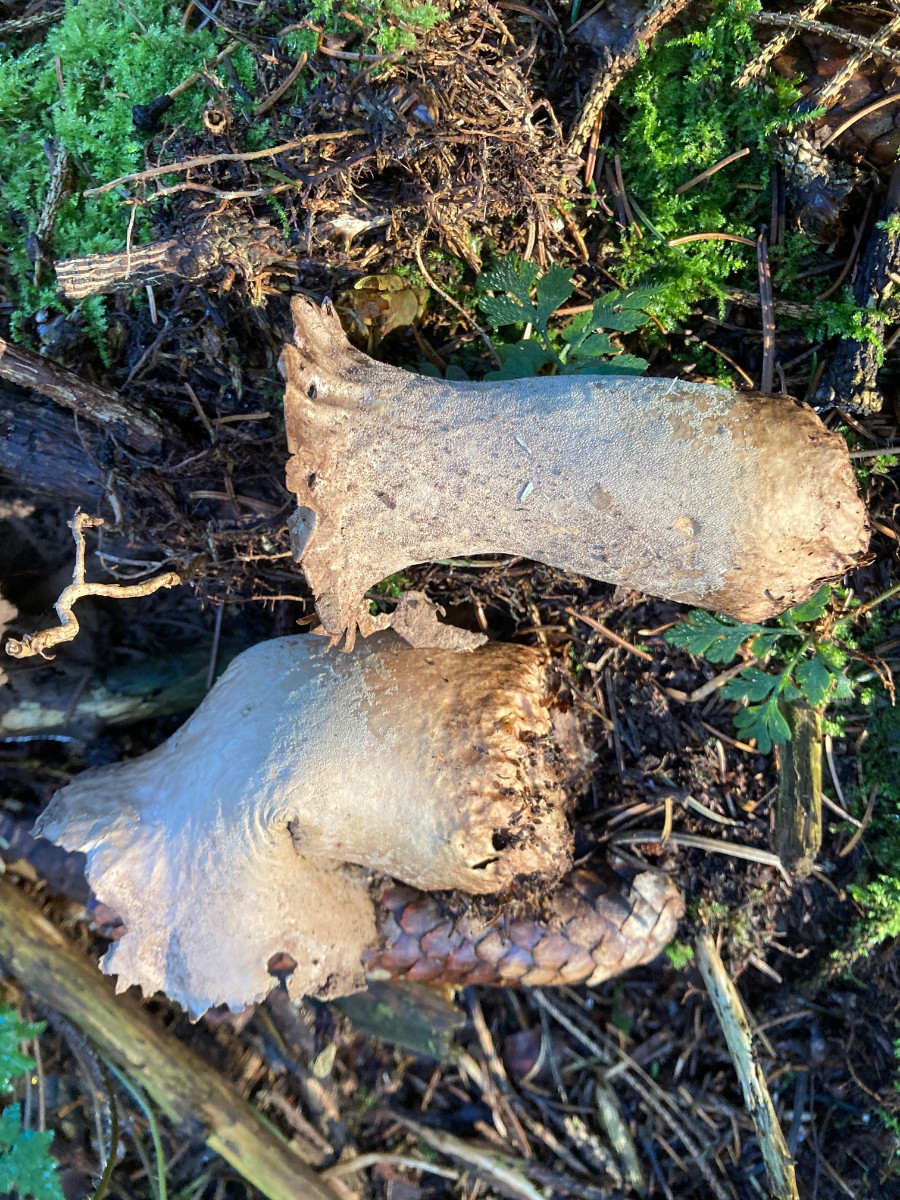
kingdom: Fungi
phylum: Basidiomycota
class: Agaricomycetes
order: Agaricales
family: Lycoperdaceae
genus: Lycoperdon
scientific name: Lycoperdon excipuliforme
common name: højstokket støvbold
